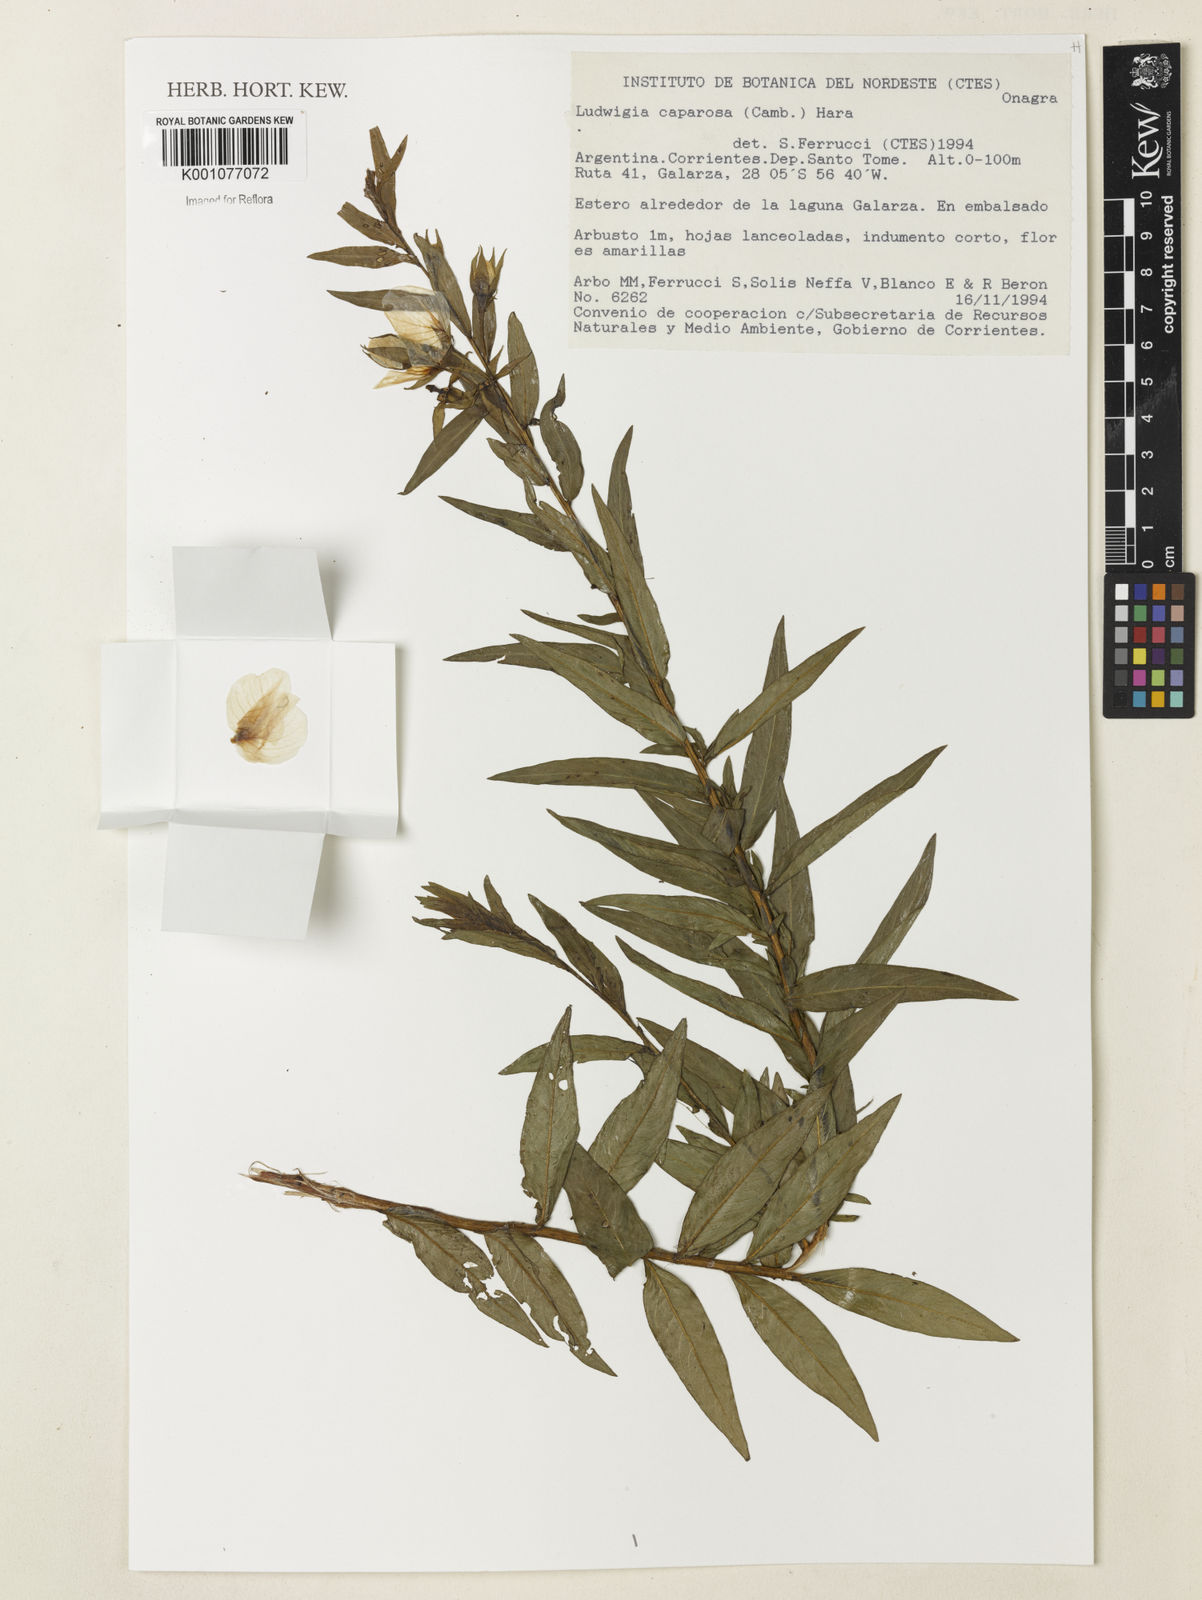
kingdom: Plantae
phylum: Tracheophyta
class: Magnoliopsida
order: Myrtales
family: Onagraceae
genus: Ludwigia
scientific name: Ludwigia caparosa
